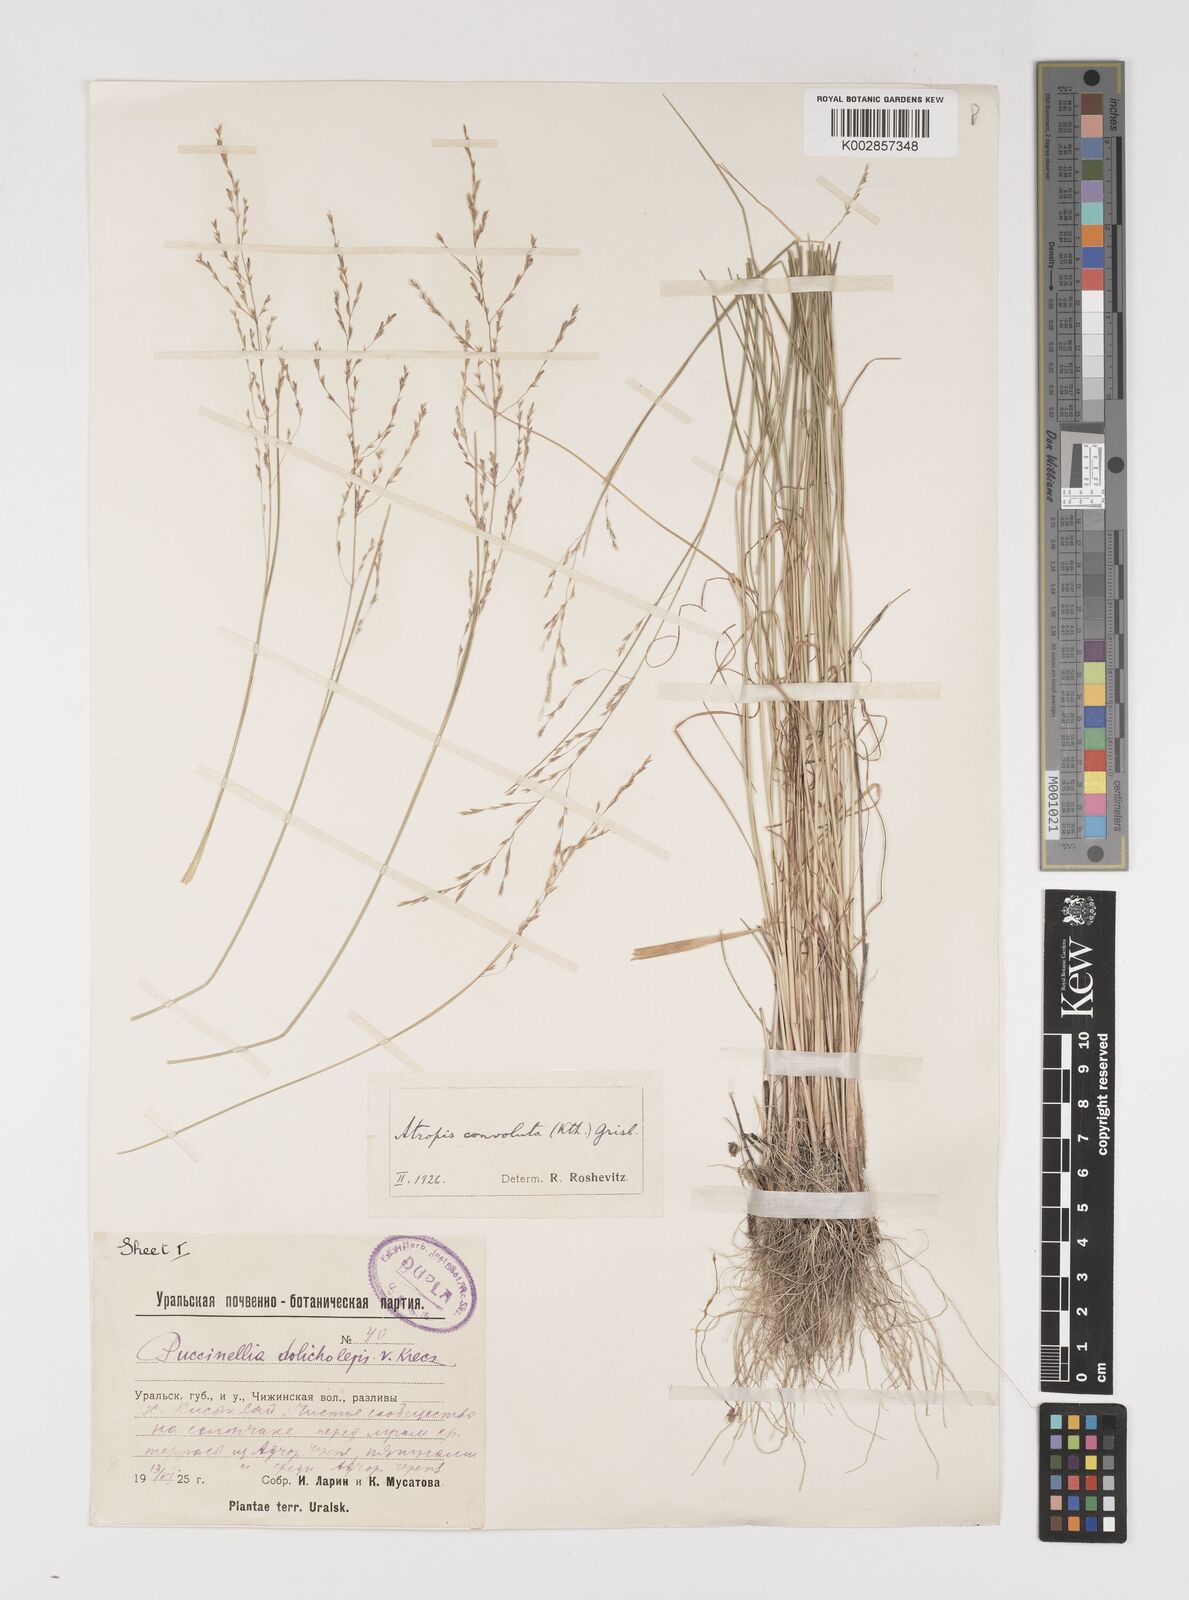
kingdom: Plantae
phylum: Tracheophyta
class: Liliopsida
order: Poales
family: Poaceae
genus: Puccinellia
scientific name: Puccinellia gigantea
